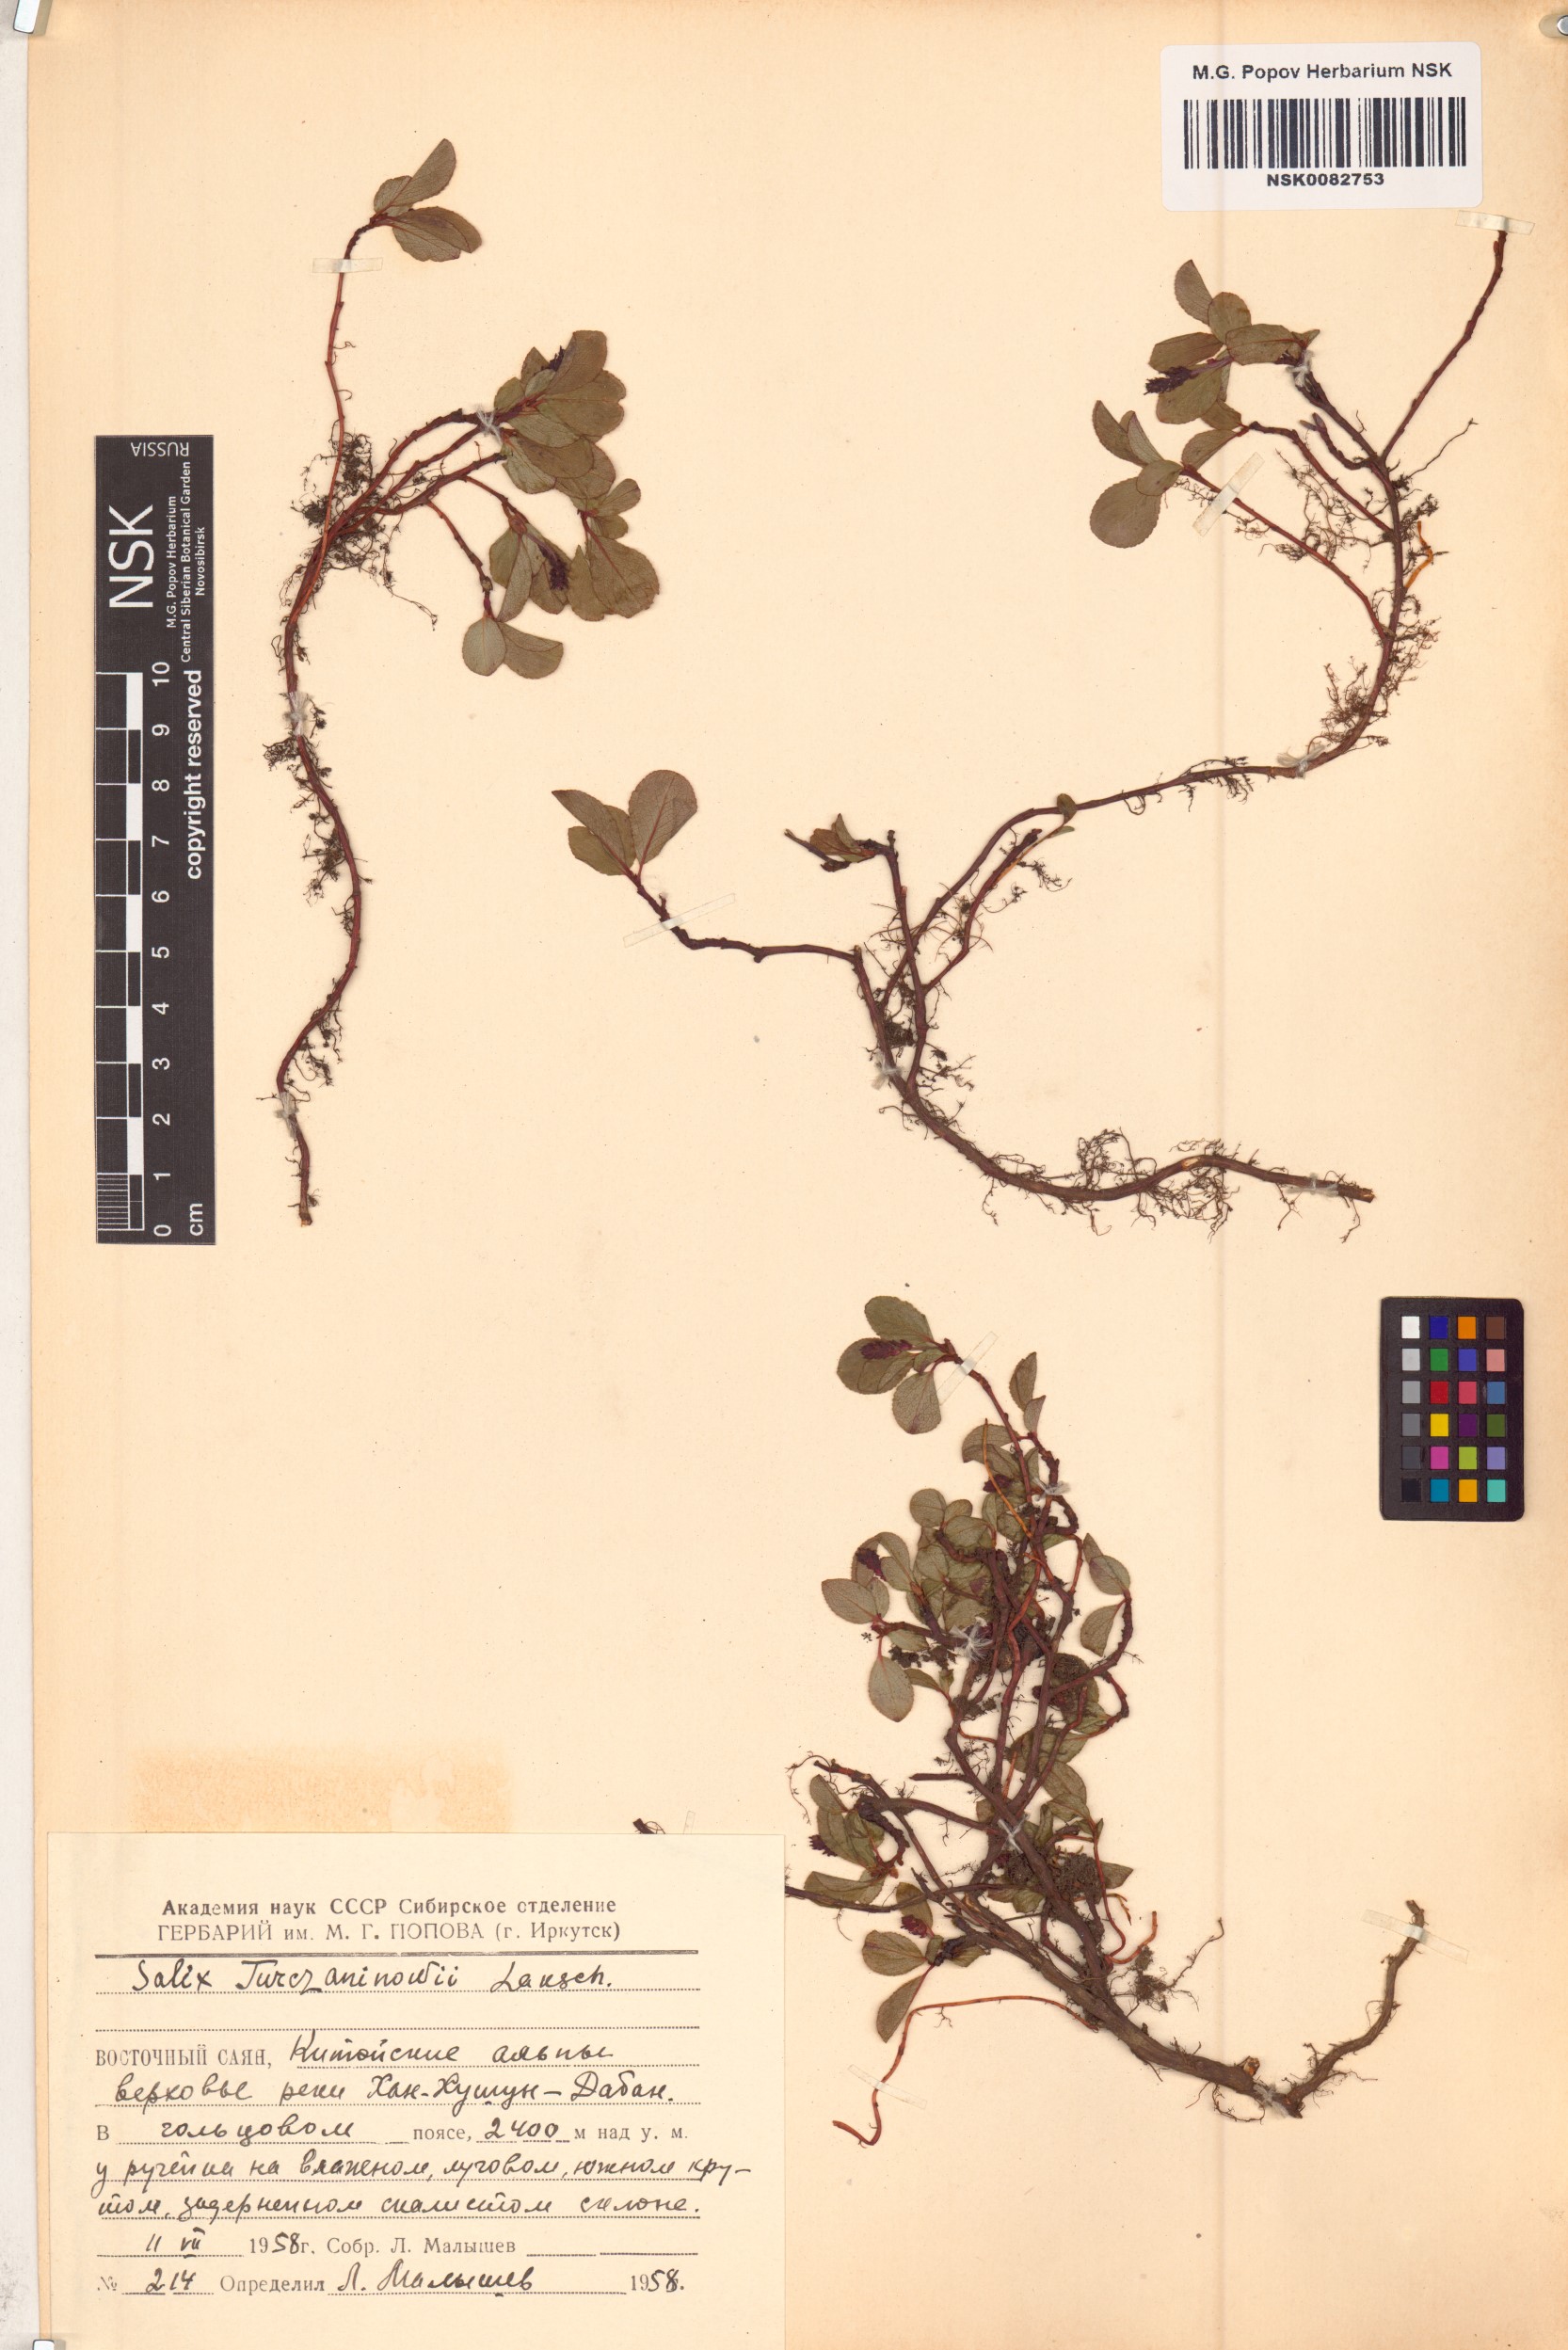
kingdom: Plantae
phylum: Tracheophyta
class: Magnoliopsida
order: Malpighiales
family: Salicaceae
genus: Salix
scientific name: Salix turczaninowii
